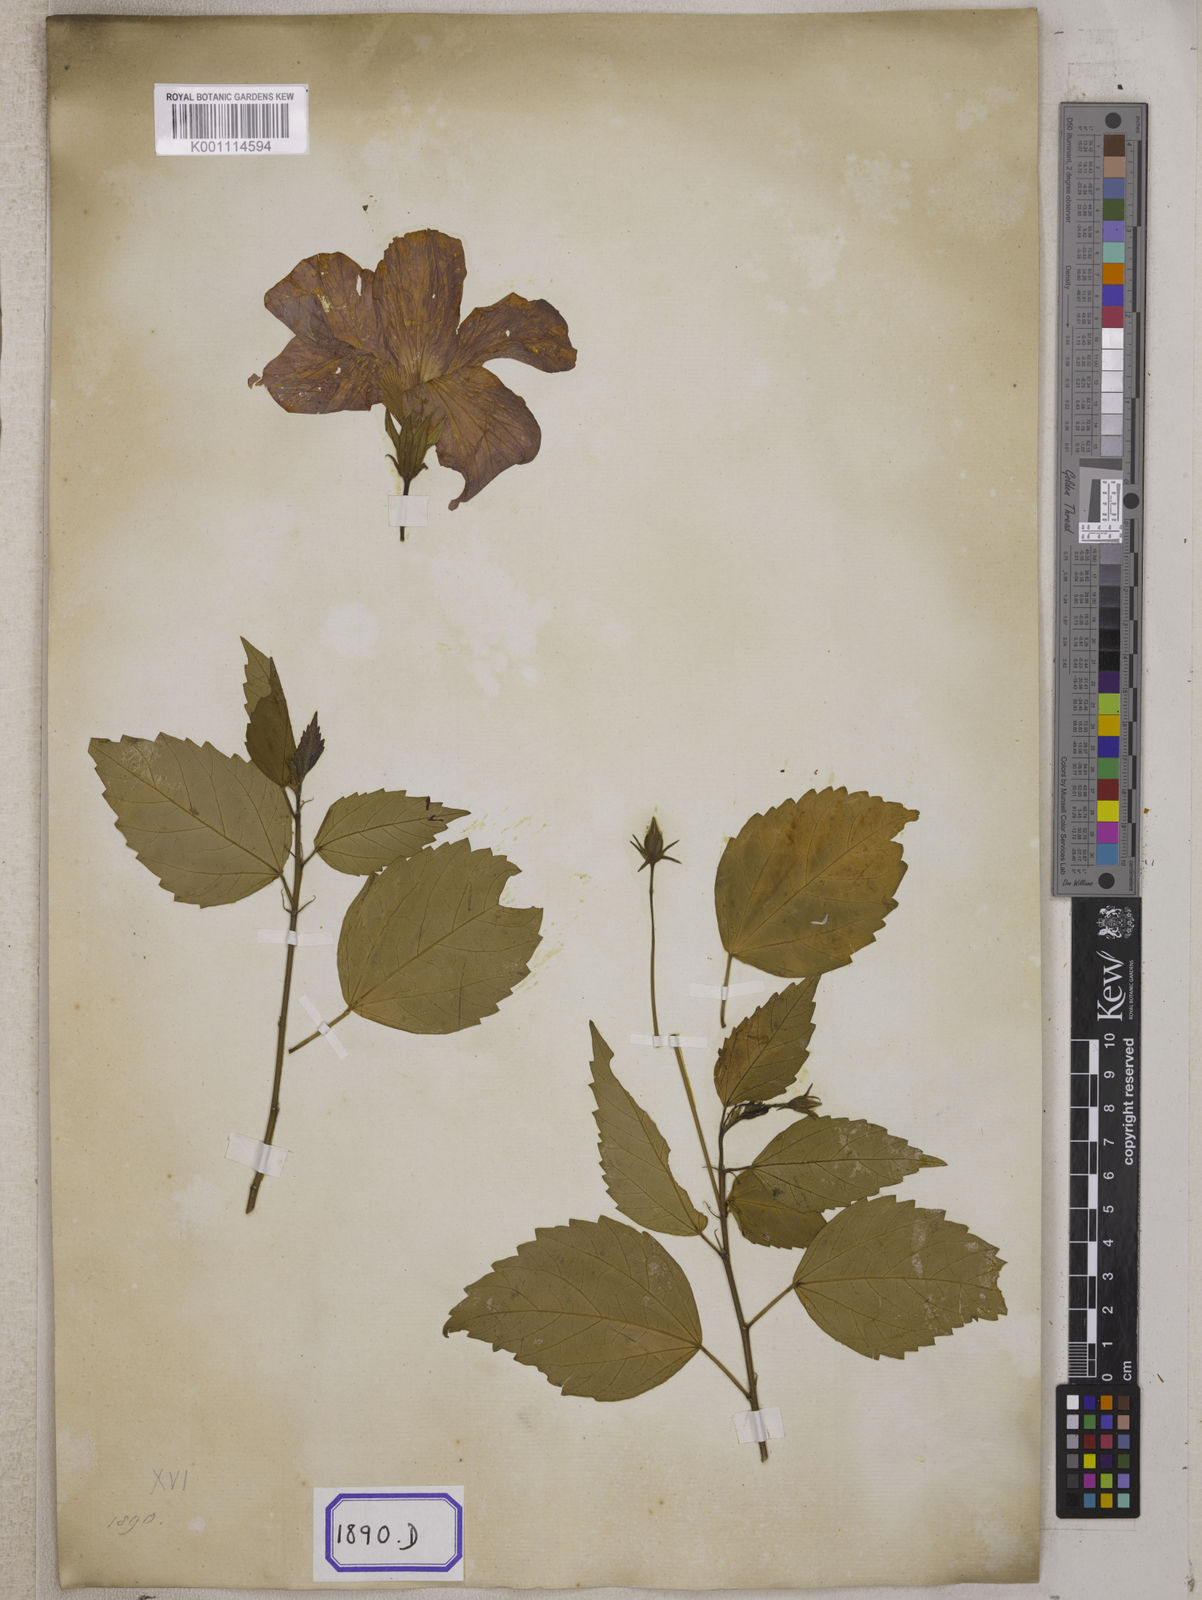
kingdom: Plantae
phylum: Tracheophyta
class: Magnoliopsida
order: Malvales
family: Malvaceae
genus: Hibiscus
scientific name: Hibiscus rosa-sinensis
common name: Hibiscus
